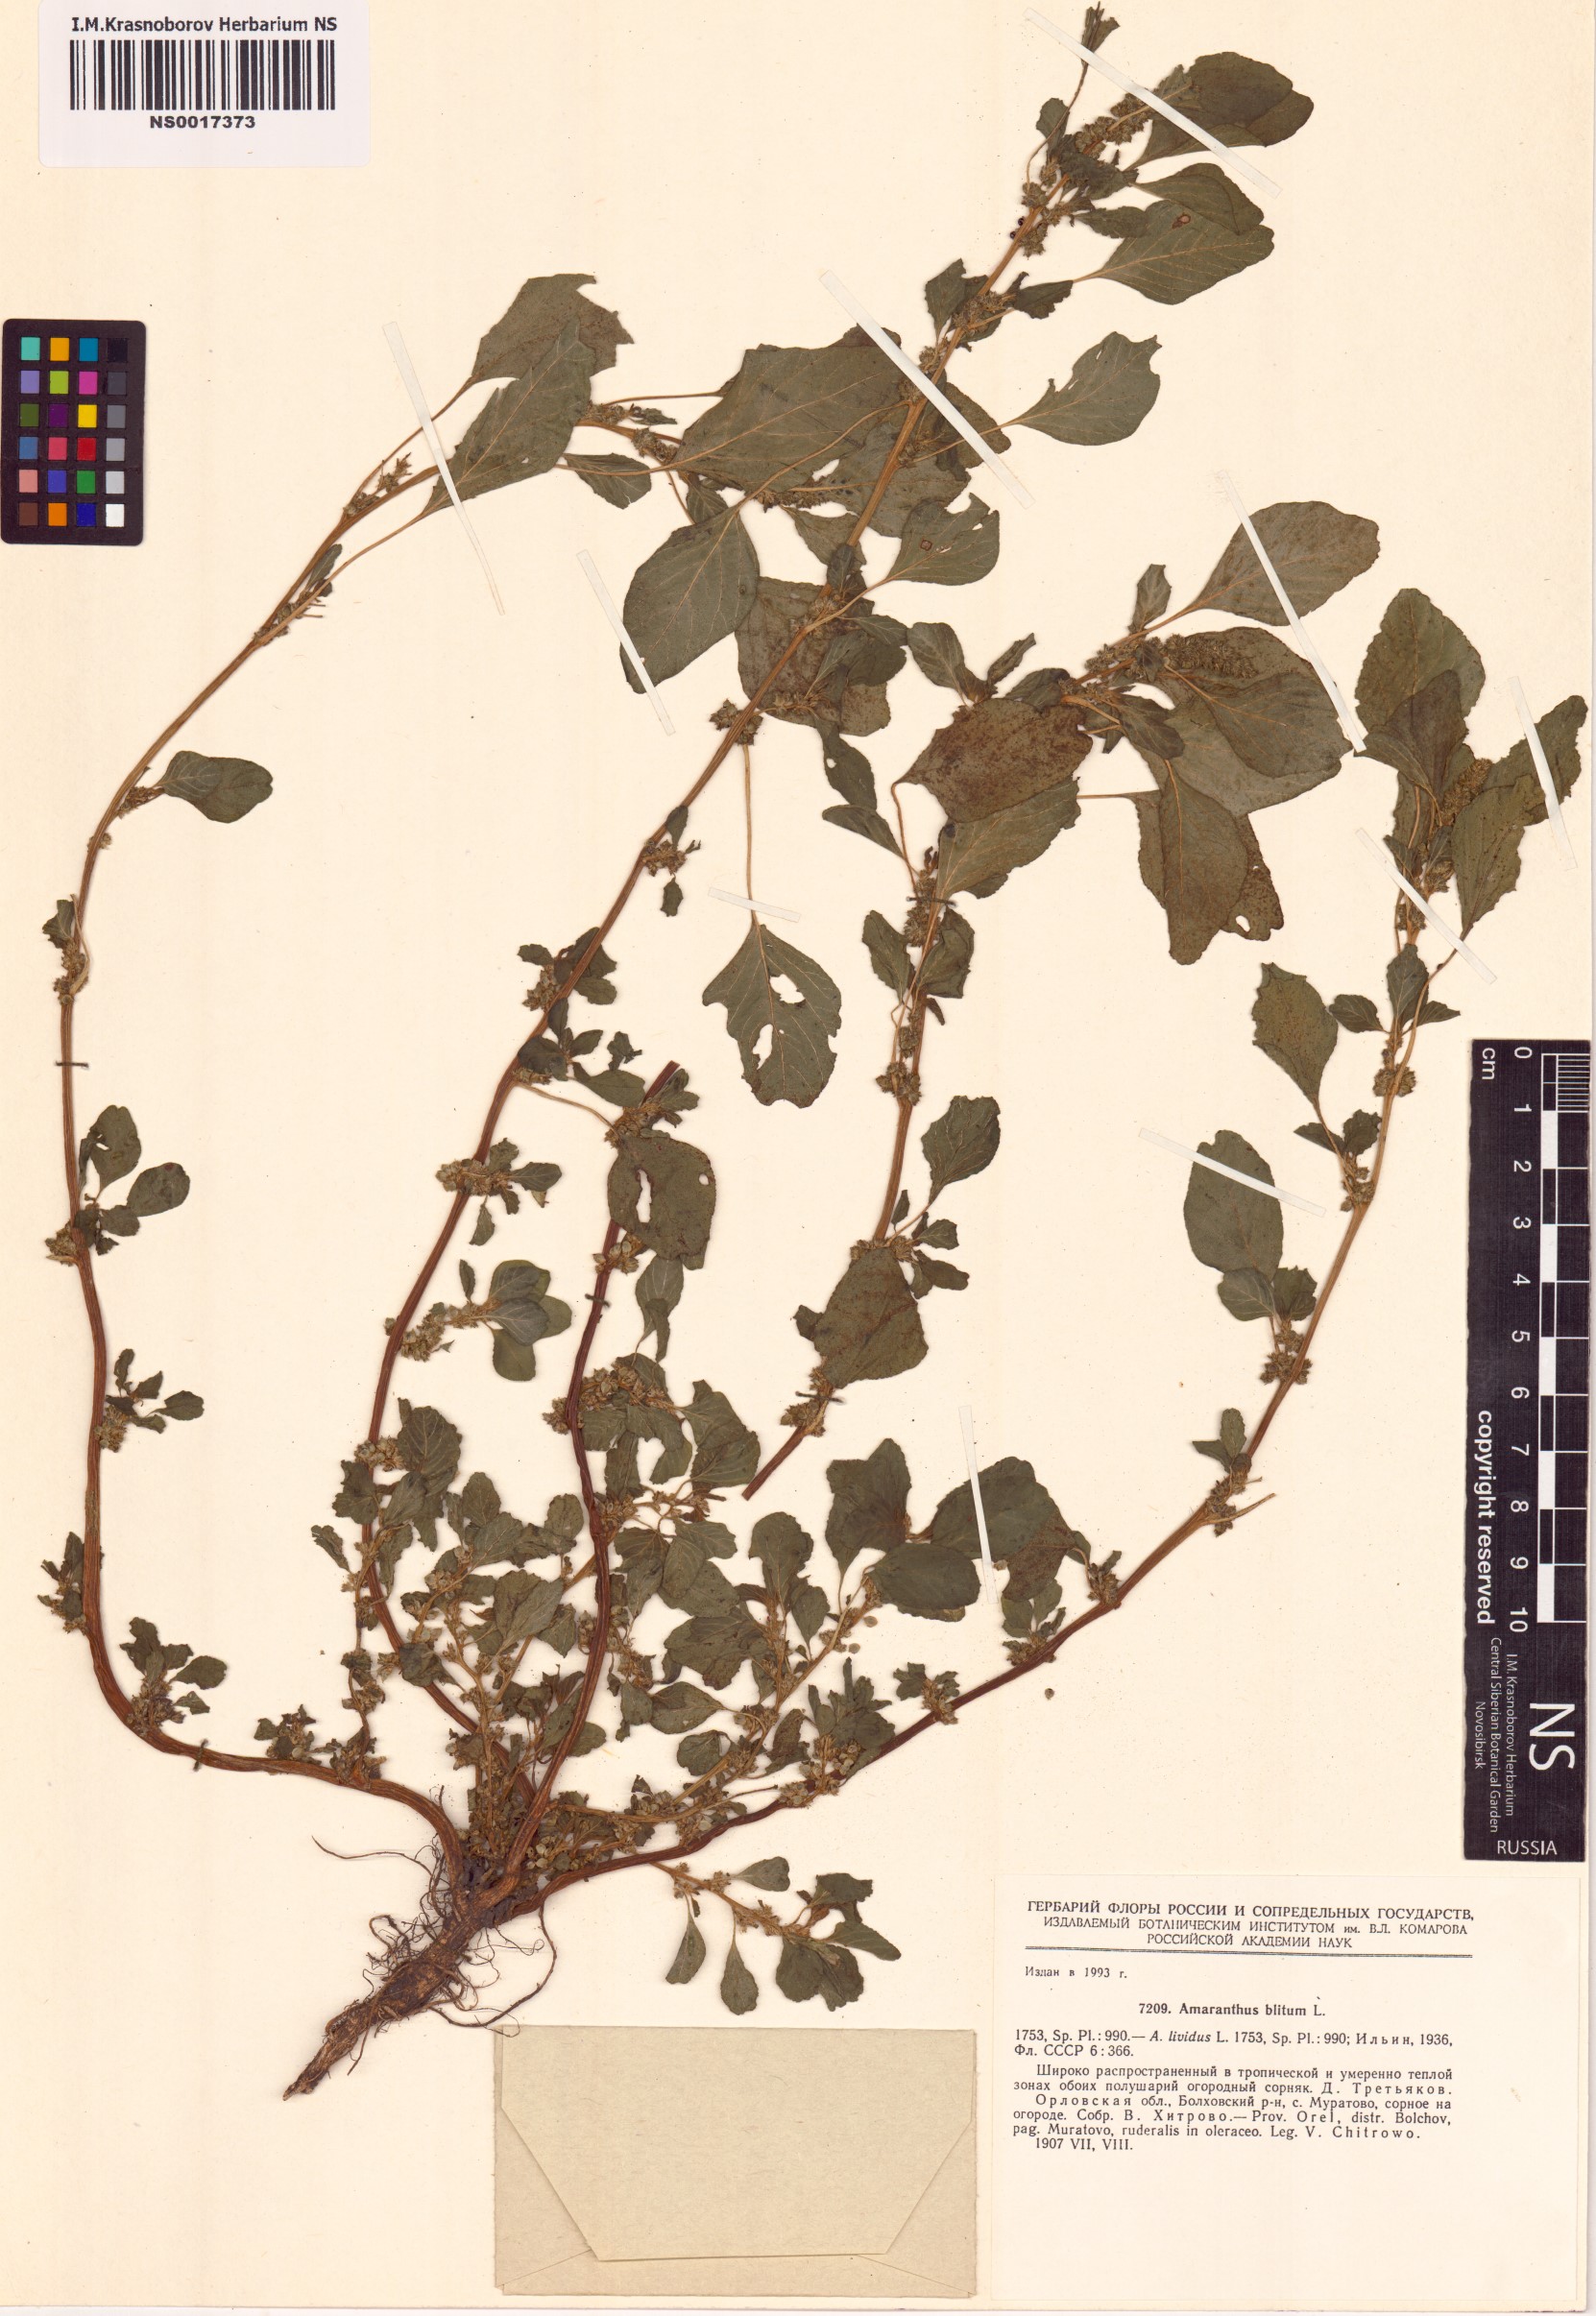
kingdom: Plantae
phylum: Tracheophyta
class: Magnoliopsida
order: Caryophyllales
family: Amaranthaceae
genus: Amaranthus
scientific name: Amaranthus blitum
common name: Purple amaranth
